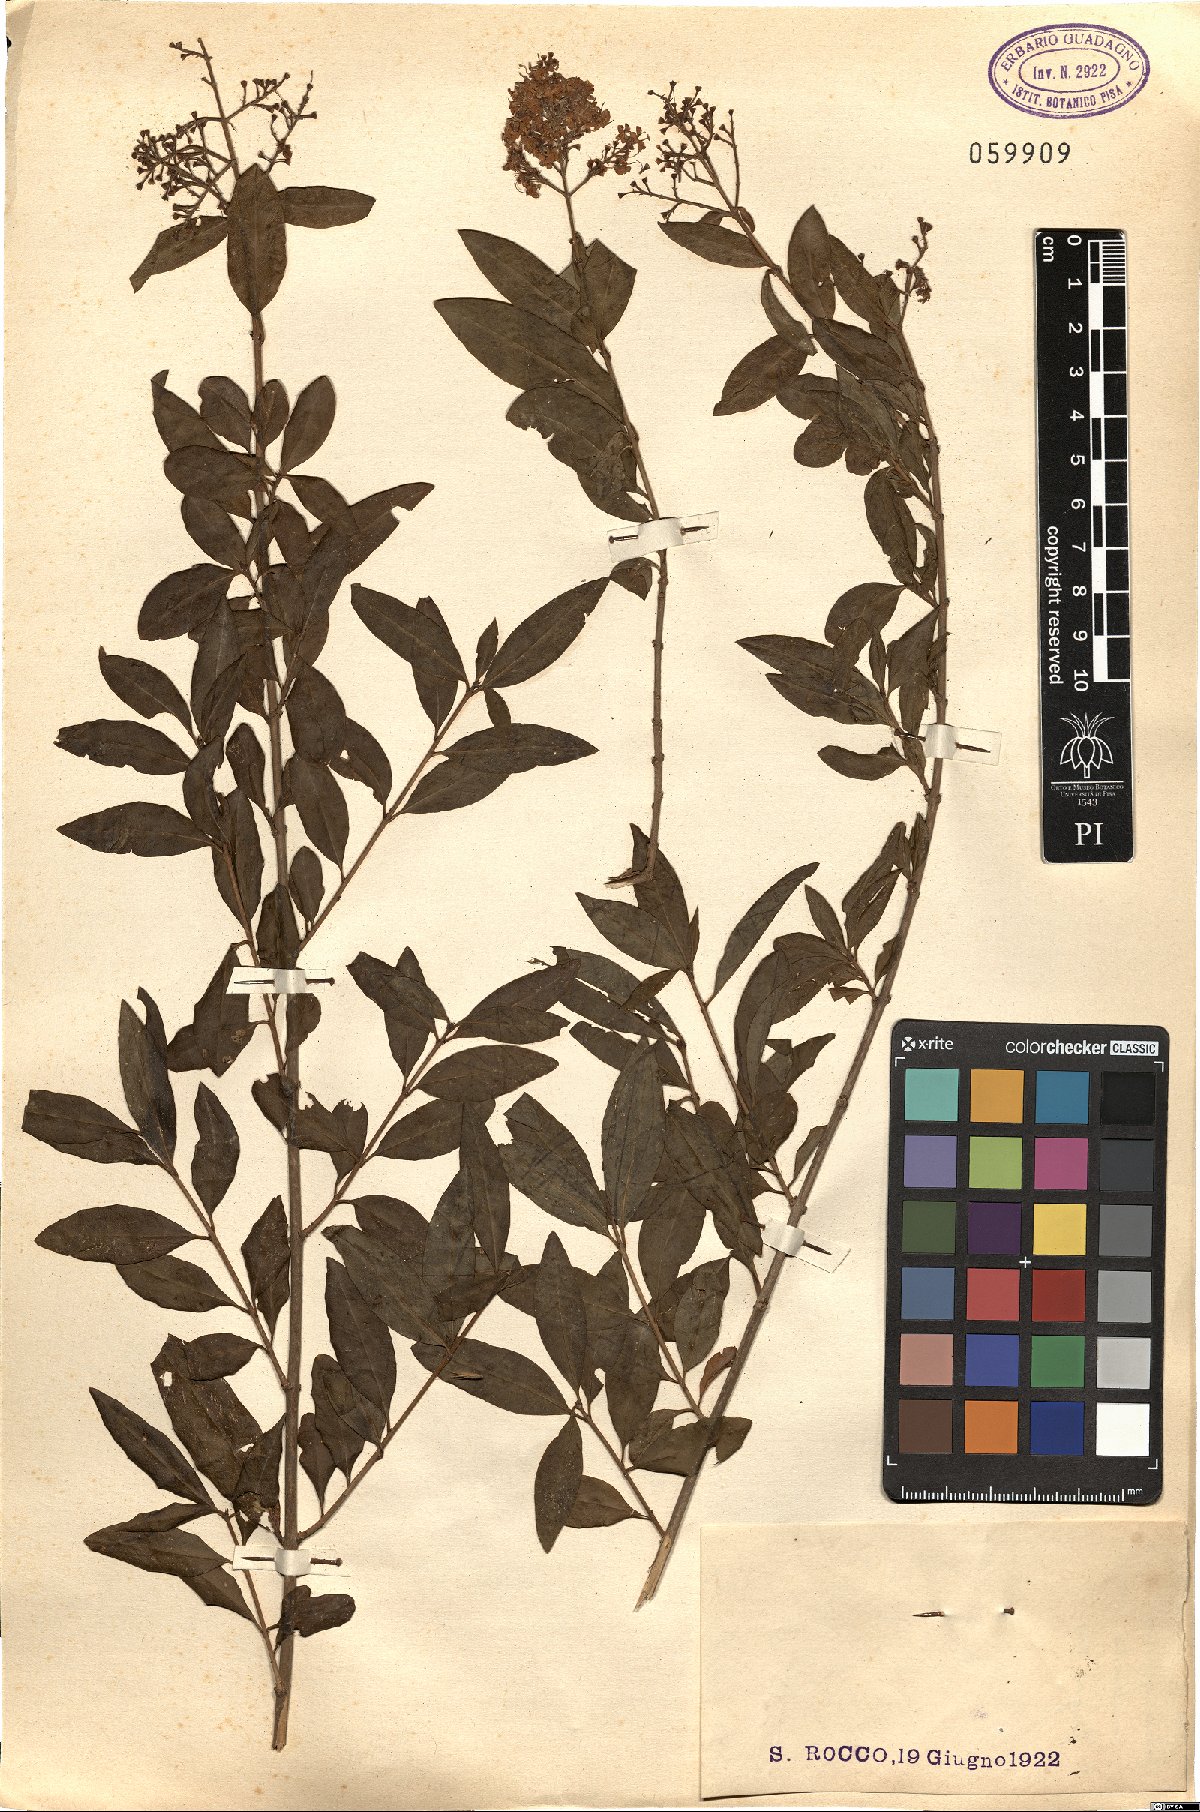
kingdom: Plantae
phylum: Tracheophyta
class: Magnoliopsida
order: Lamiales
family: Oleaceae
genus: Ligustrum
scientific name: Ligustrum vulgare
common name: Wild privet
